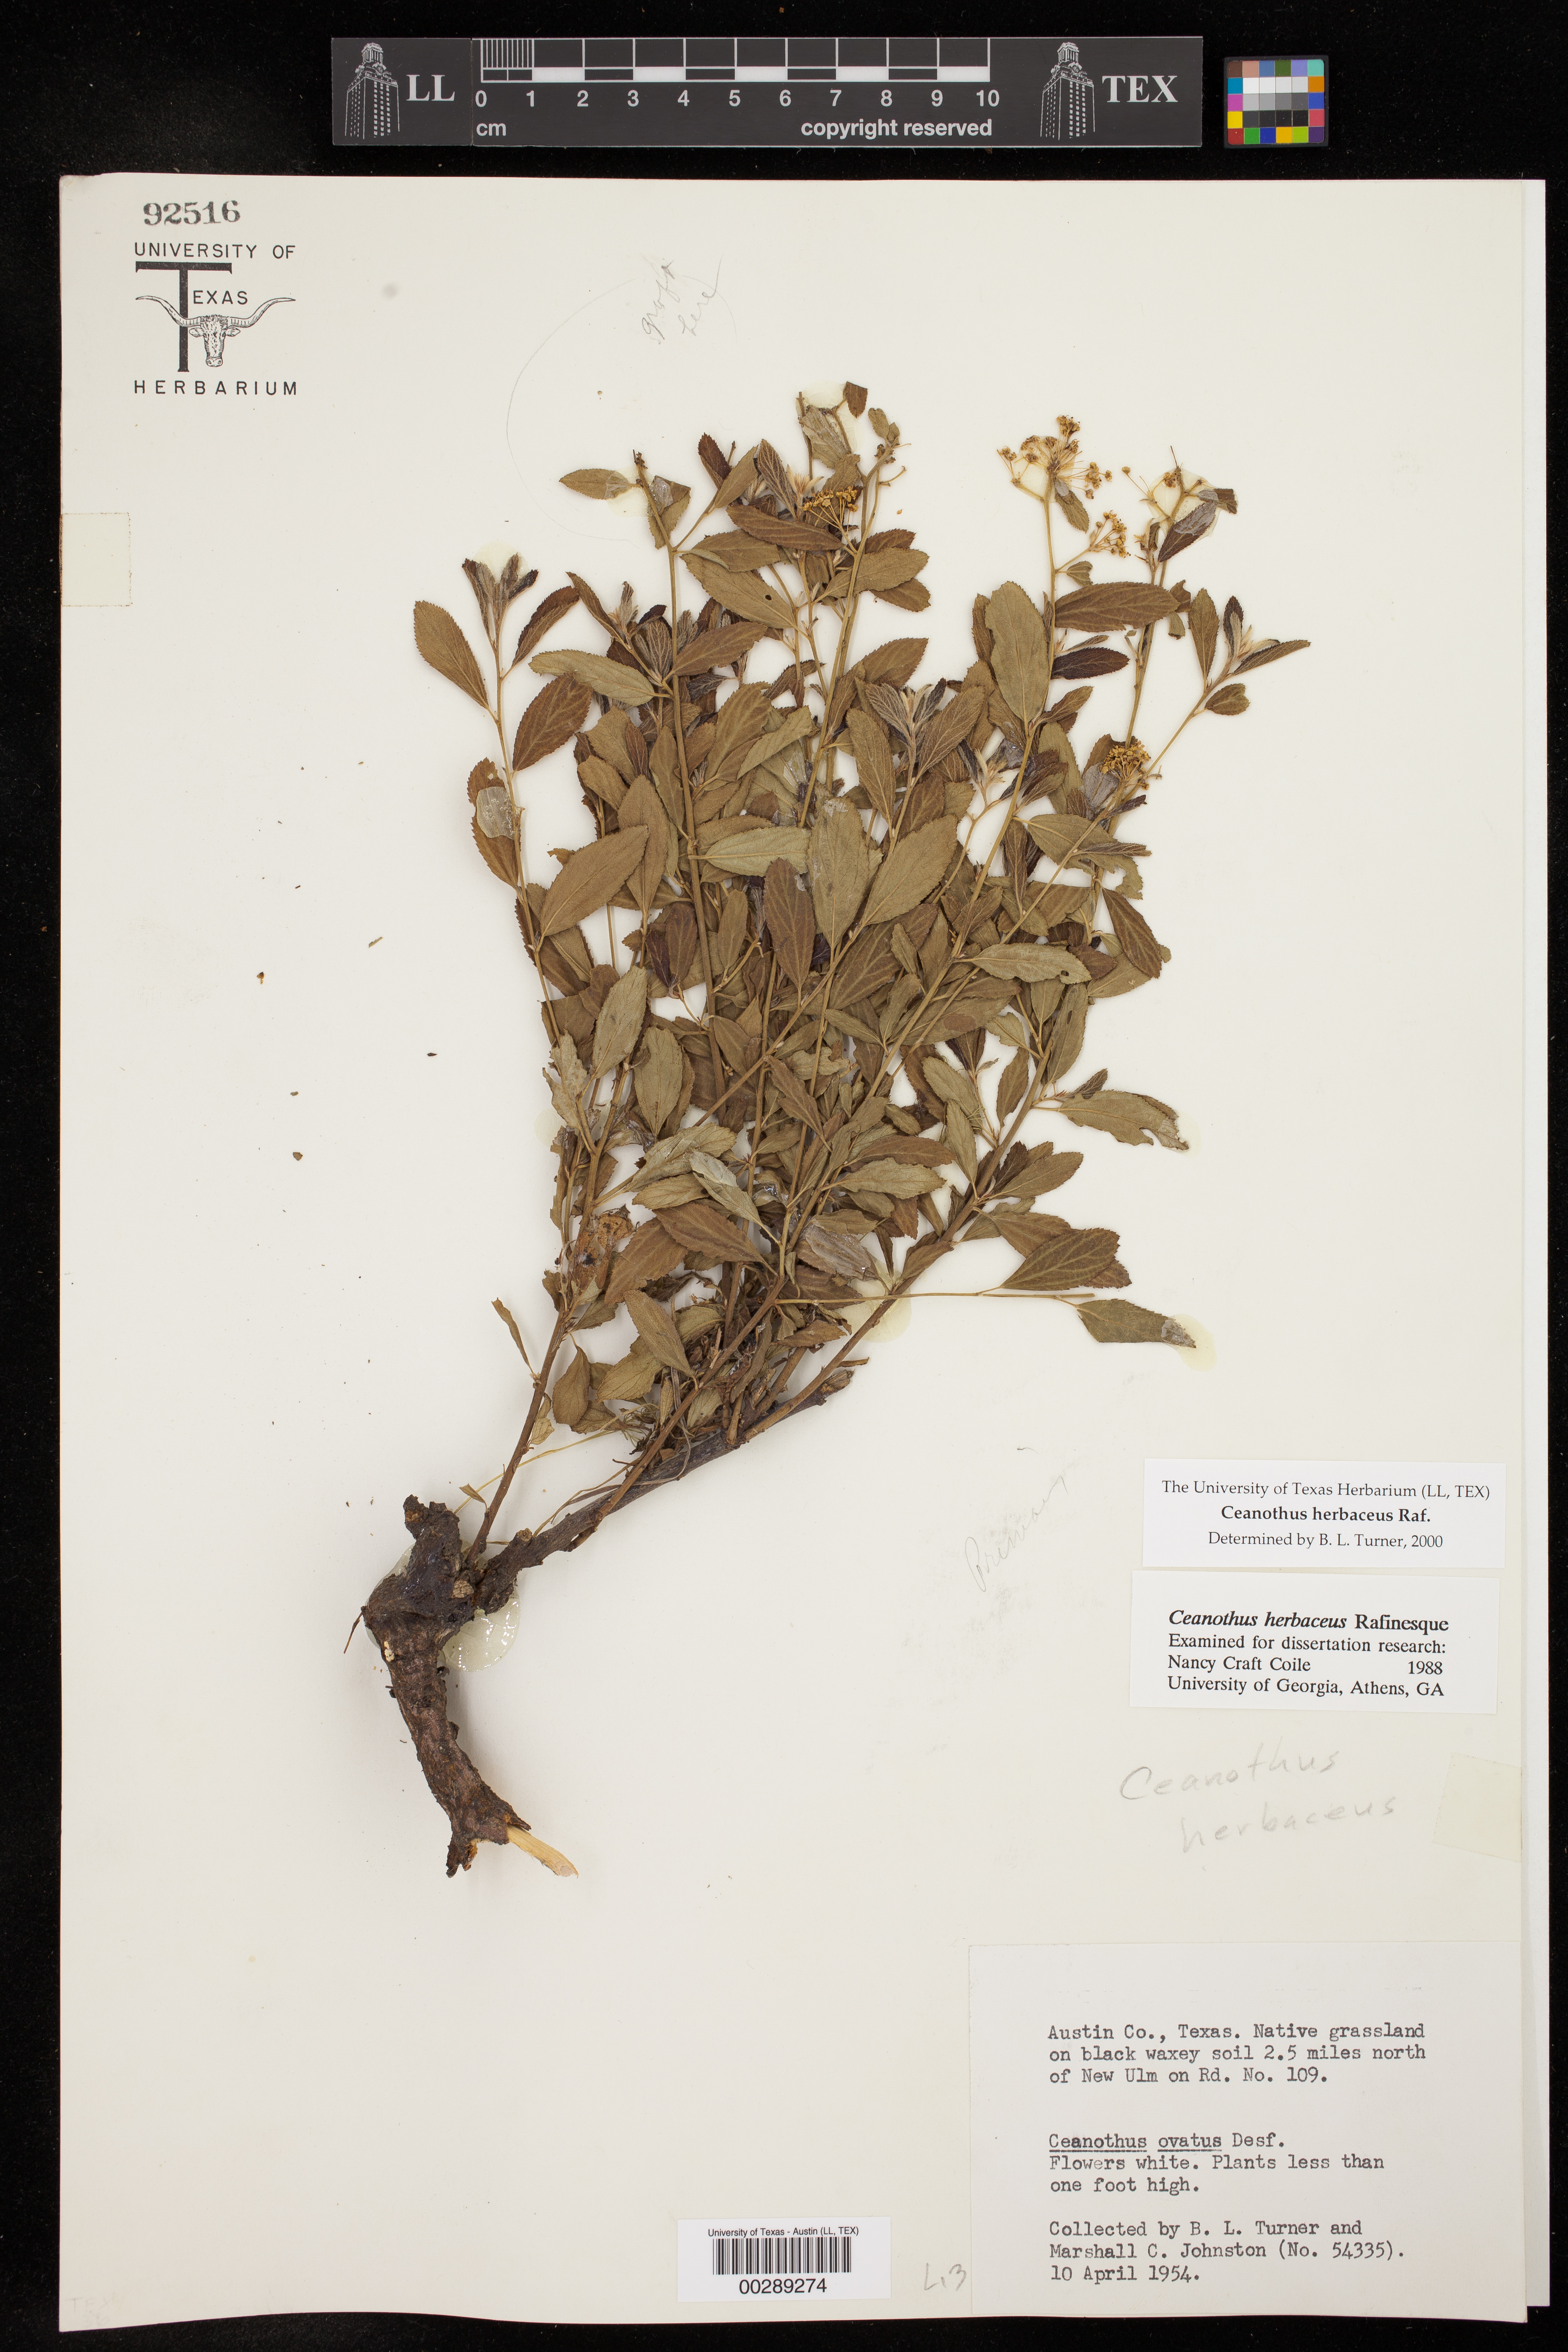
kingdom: Plantae
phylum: Tracheophyta
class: Magnoliopsida
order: Rosales
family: Rhamnaceae
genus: Ceanothus
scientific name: Ceanothus herbaceus
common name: Inland ceanothus
